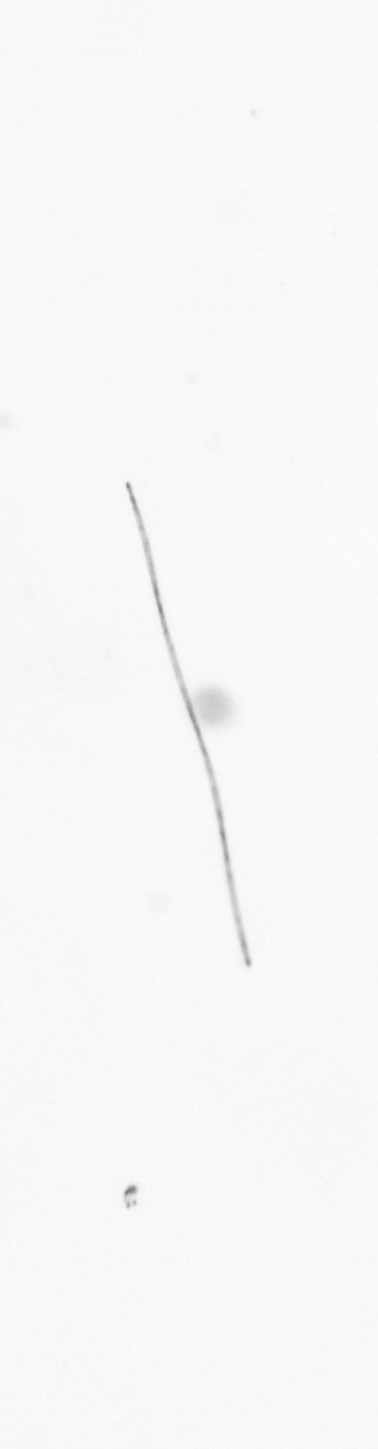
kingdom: Chromista
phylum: Ochrophyta
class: Bacillariophyceae
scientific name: Bacillariophyceae
